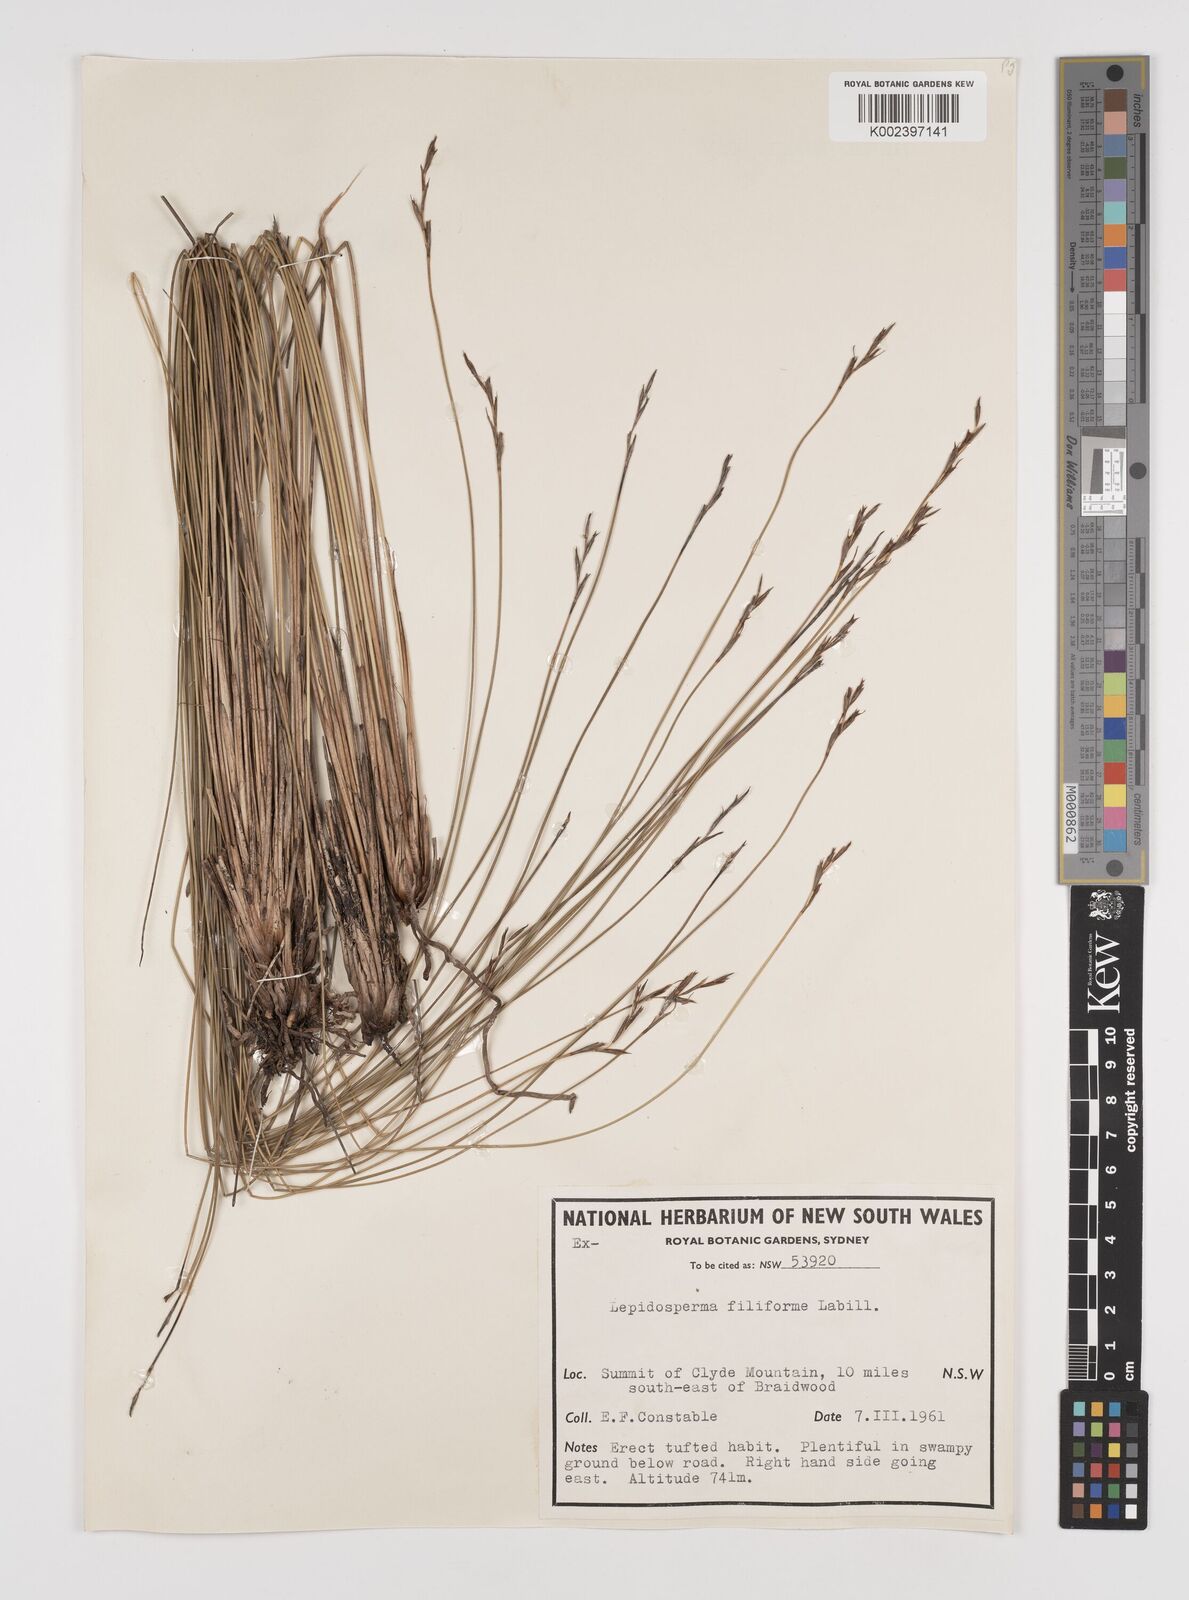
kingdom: Plantae
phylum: Tracheophyta
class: Liliopsida
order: Poales
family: Cyperaceae
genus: Lepidosperma
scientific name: Lepidosperma filiforme
